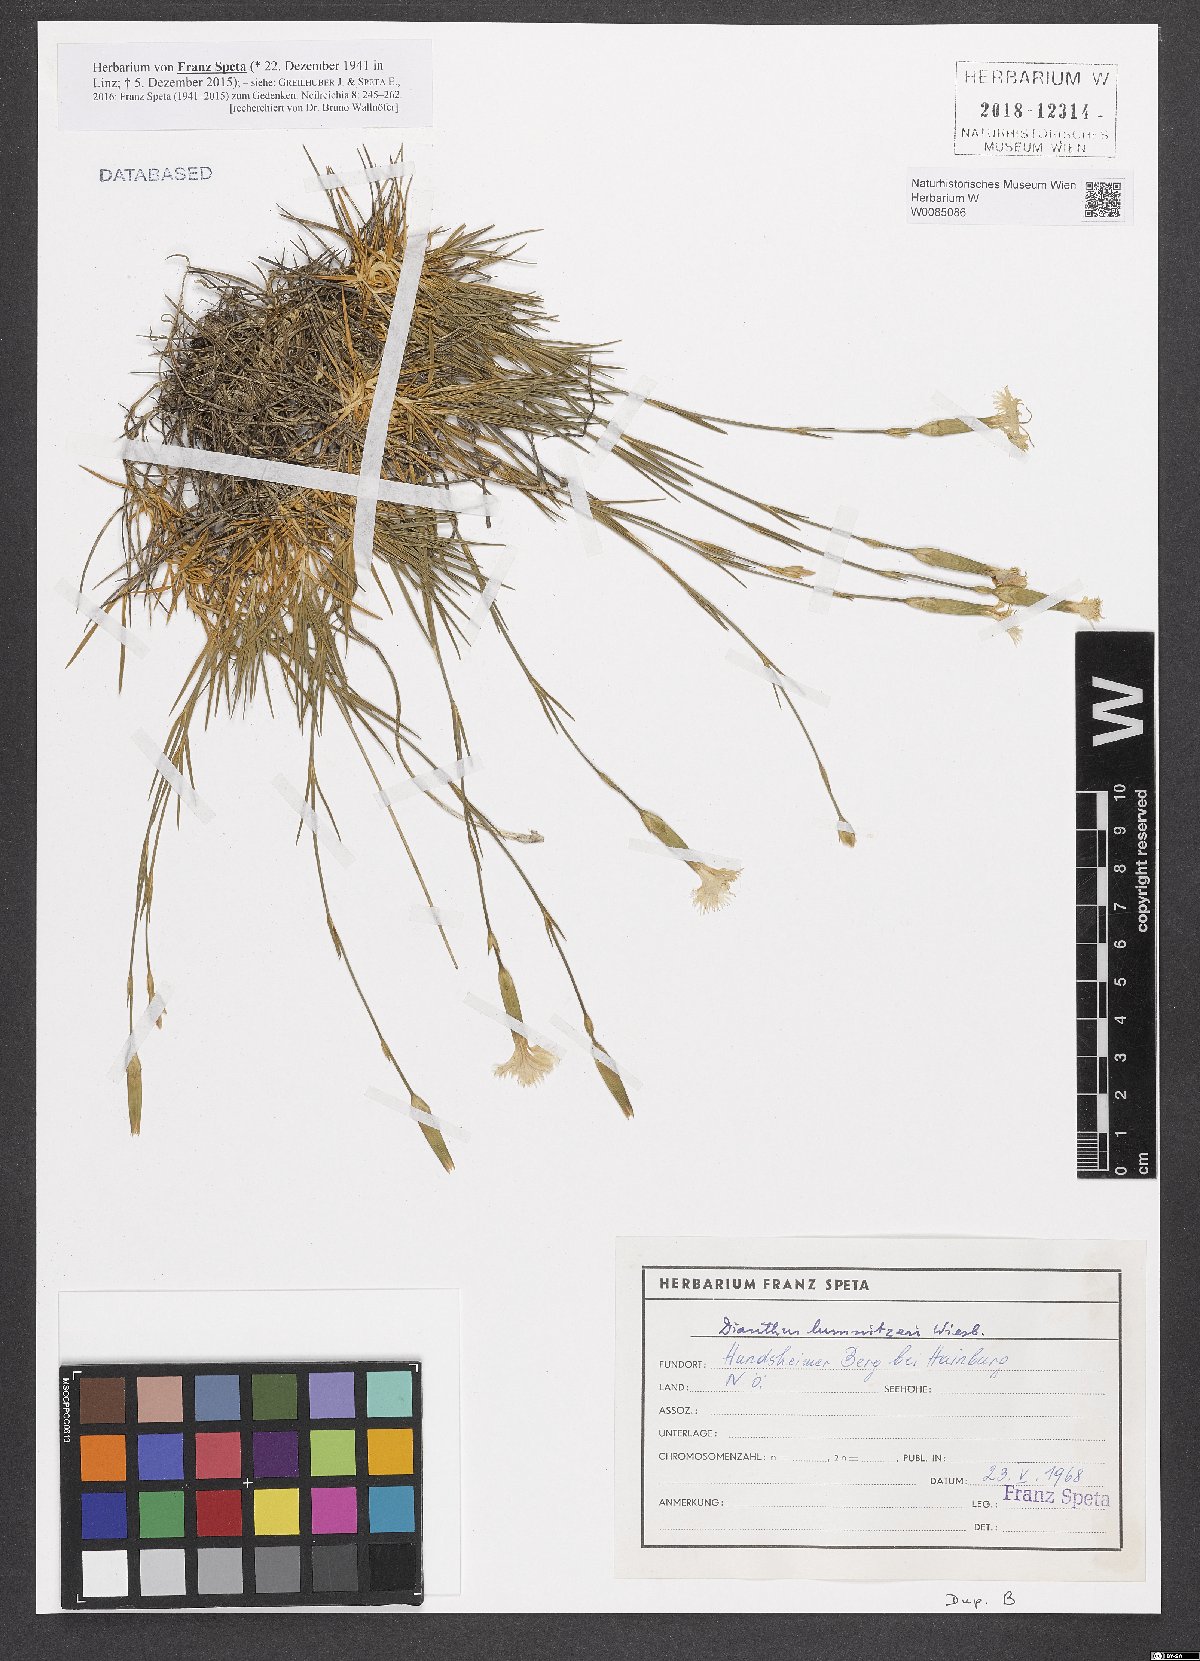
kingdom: Plantae
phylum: Tracheophyta
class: Magnoliopsida
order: Caryophyllales
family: Caryophyllaceae
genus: Dianthus
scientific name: Dianthus praecox
